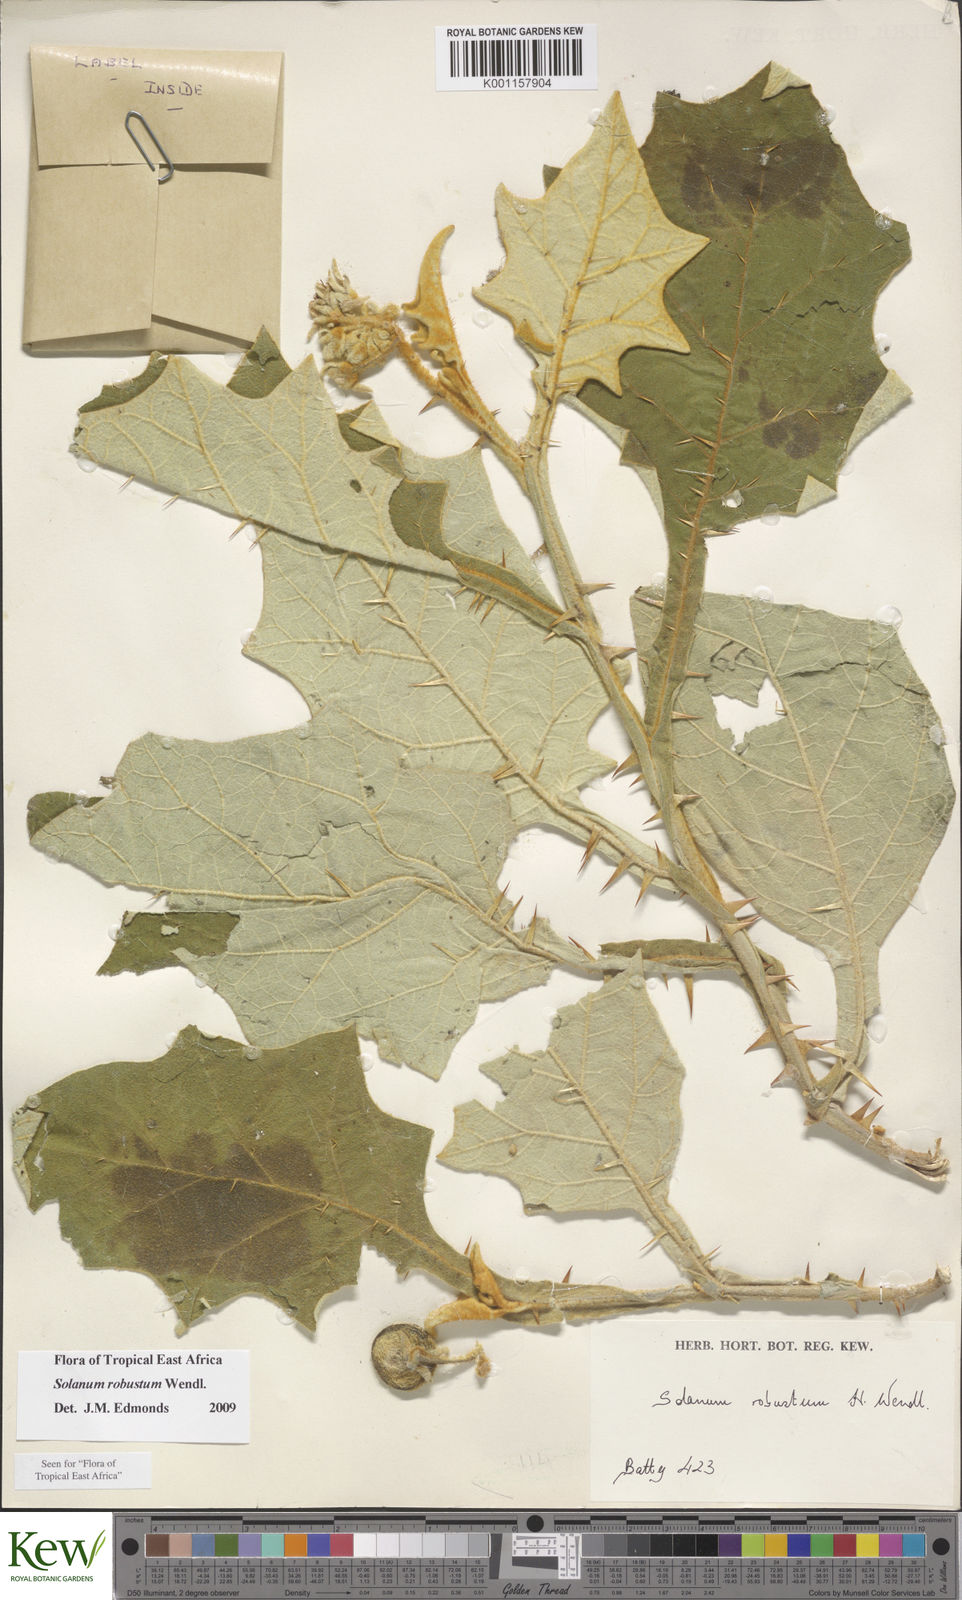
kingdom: Plantae
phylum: Tracheophyta
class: Magnoliopsida
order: Solanales
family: Solanaceae
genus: Solanum
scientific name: Solanum robustum
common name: Shrubby nightshade
